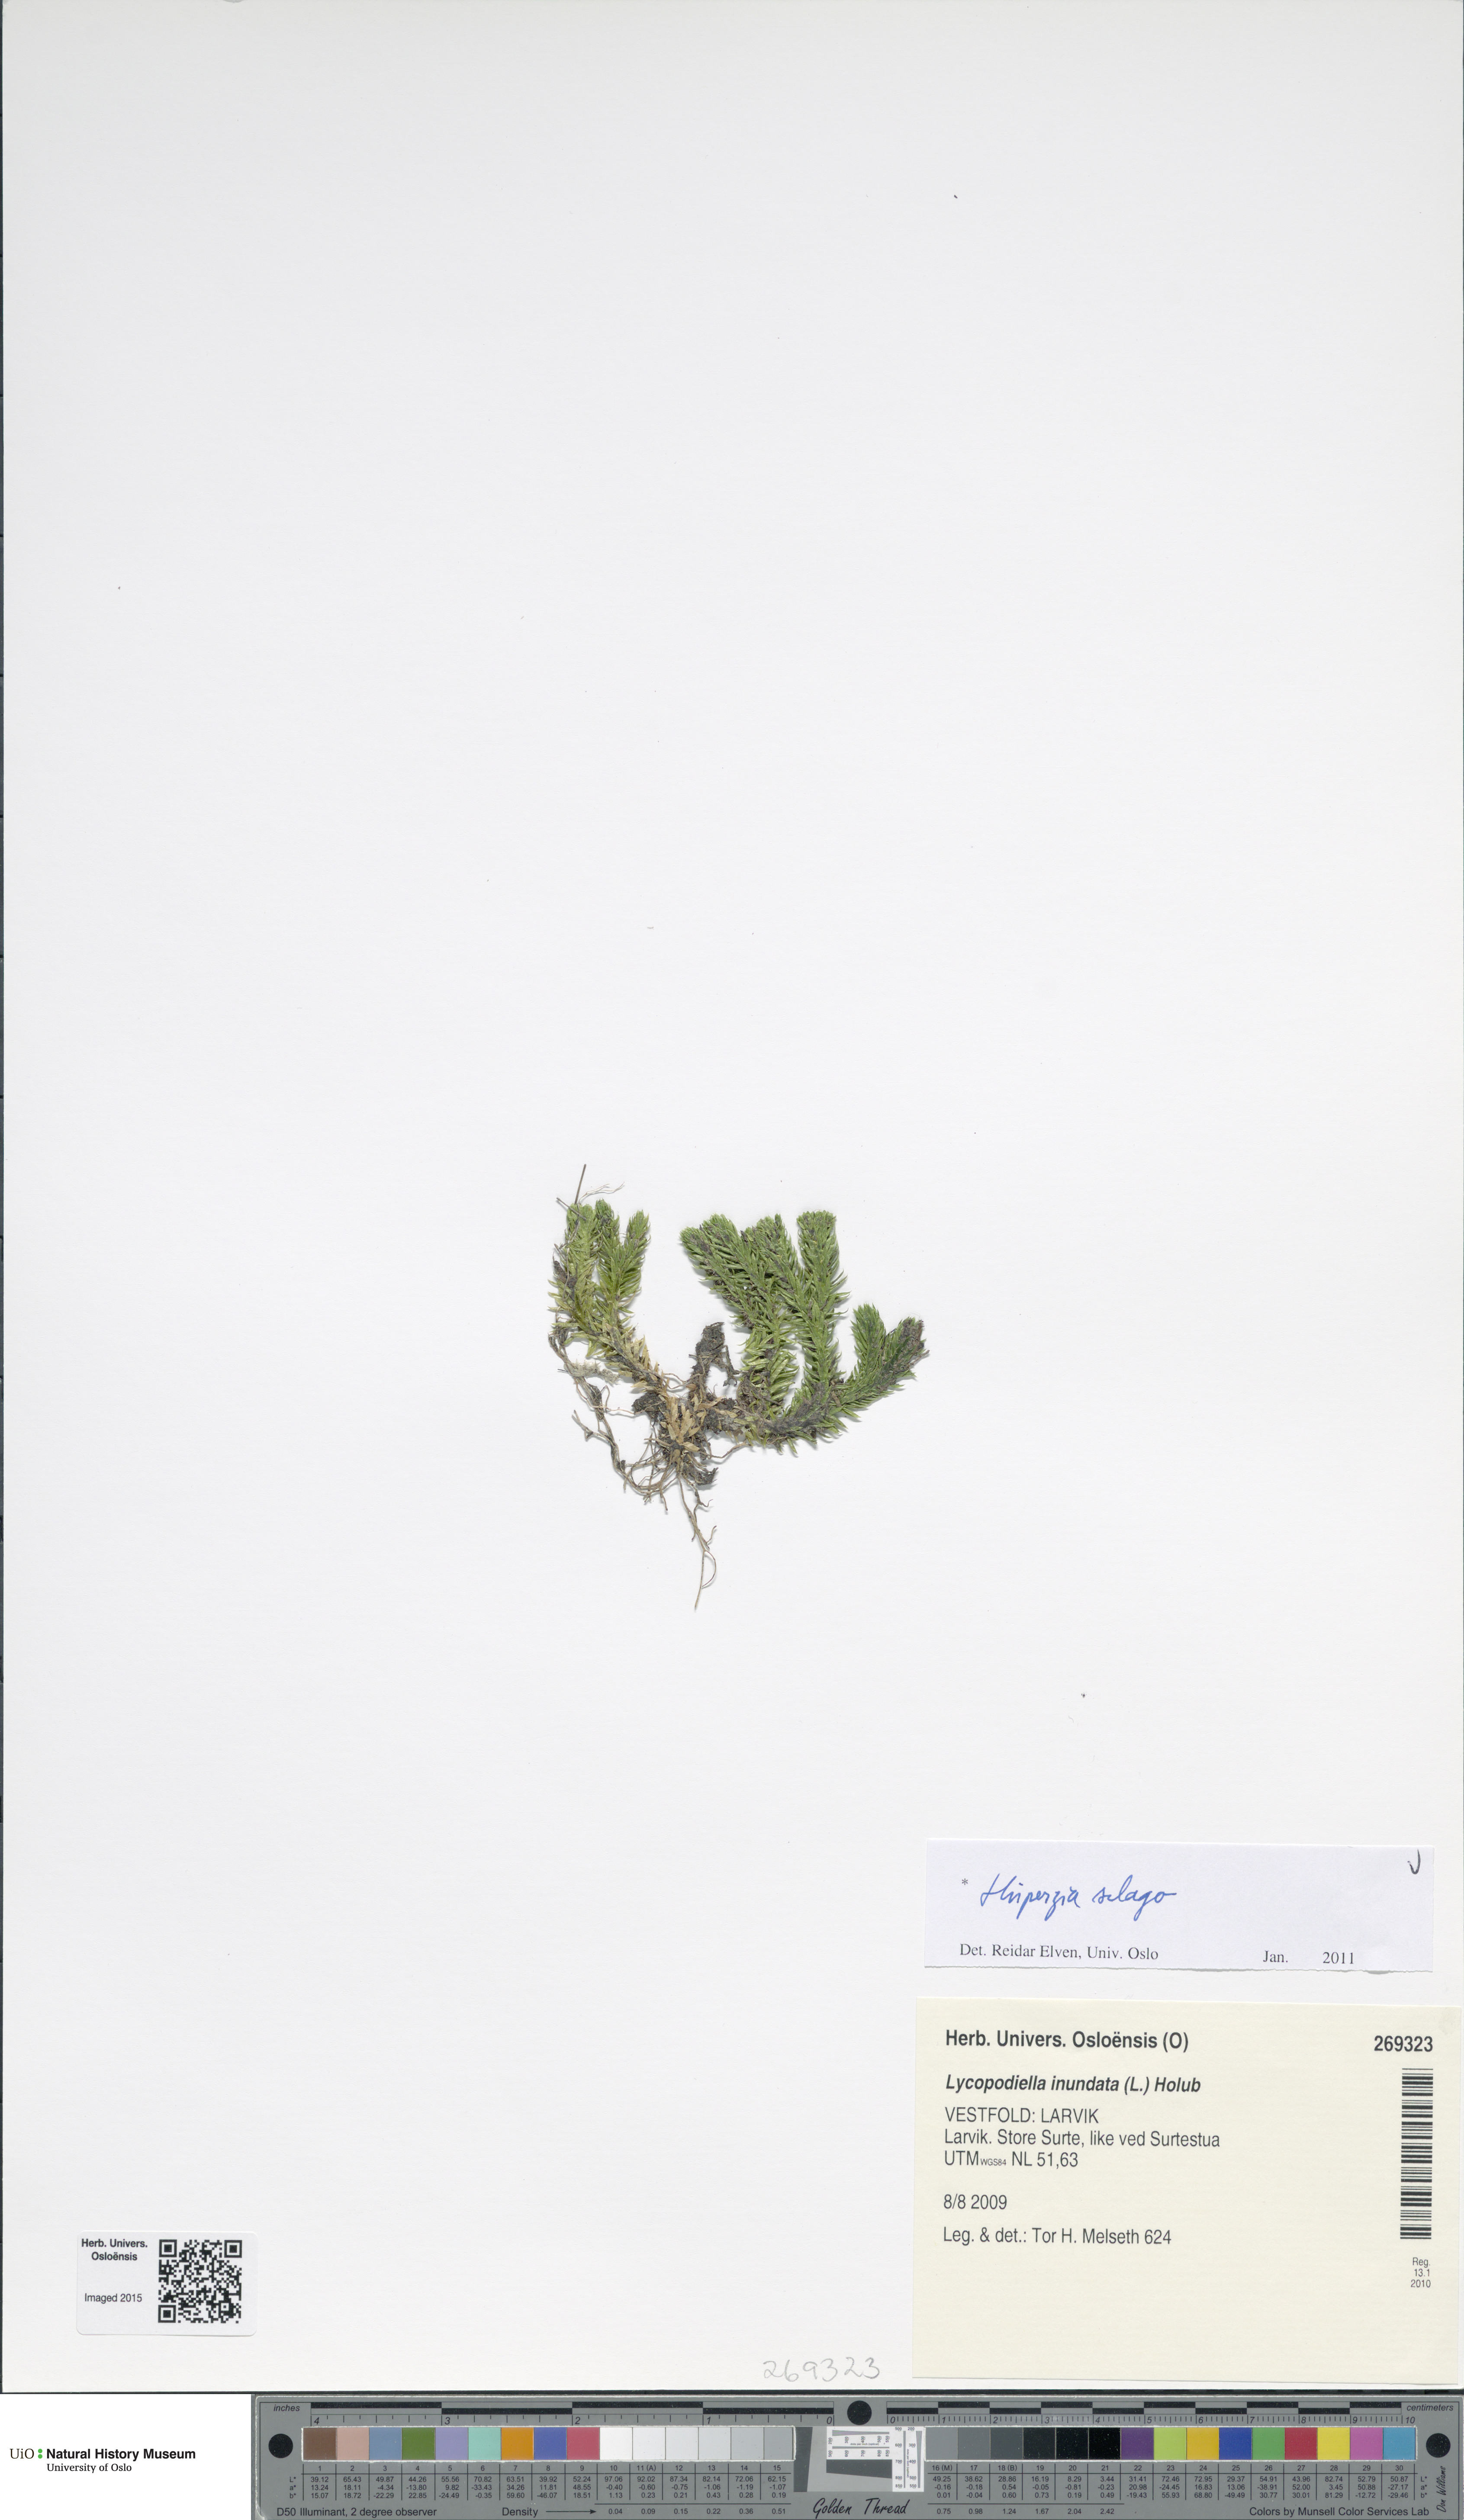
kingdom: Plantae
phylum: Tracheophyta
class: Lycopodiopsida
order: Lycopodiales
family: Lycopodiaceae
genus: Huperzia
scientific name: Huperzia selago
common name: Northern firmoss
